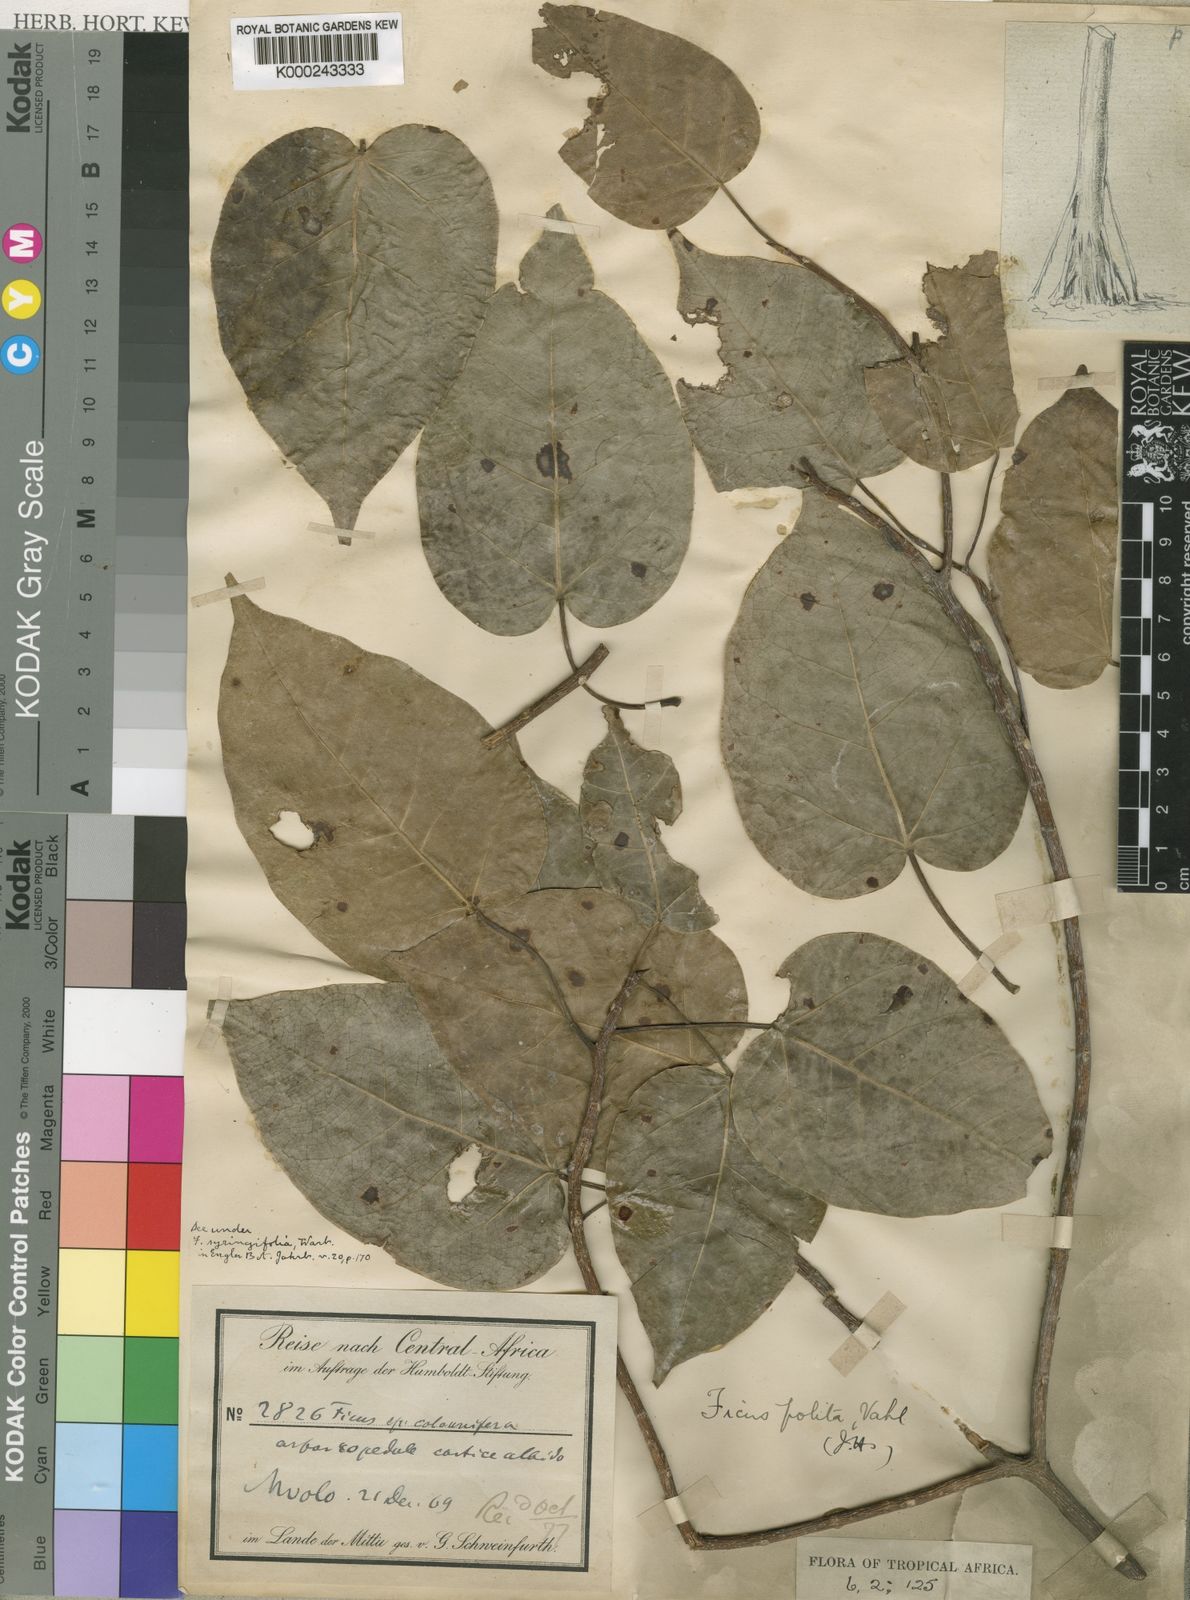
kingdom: Plantae
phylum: Tracheophyta
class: Magnoliopsida
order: Rosales
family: Moraceae
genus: Ficus
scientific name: Ficus polita
